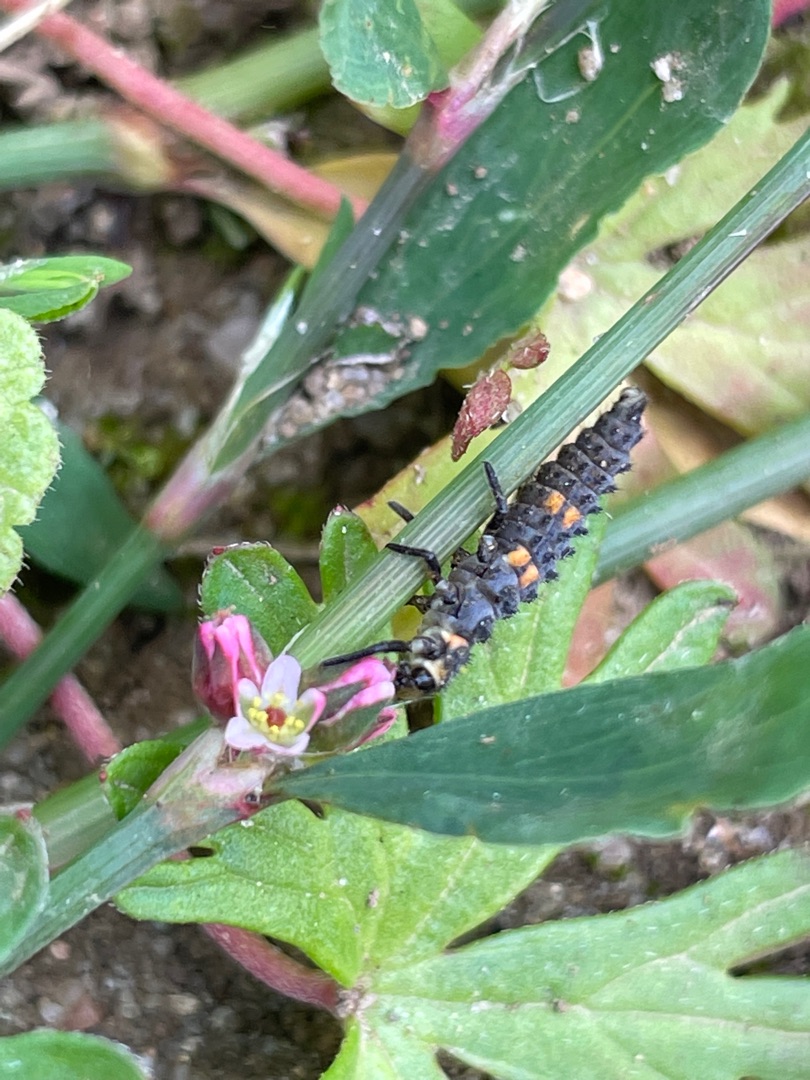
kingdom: Animalia
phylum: Arthropoda
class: Insecta
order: Coleoptera
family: Coccinellidae
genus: Coccinella
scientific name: Coccinella septempunctata
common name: Syvplettet mariehøne
